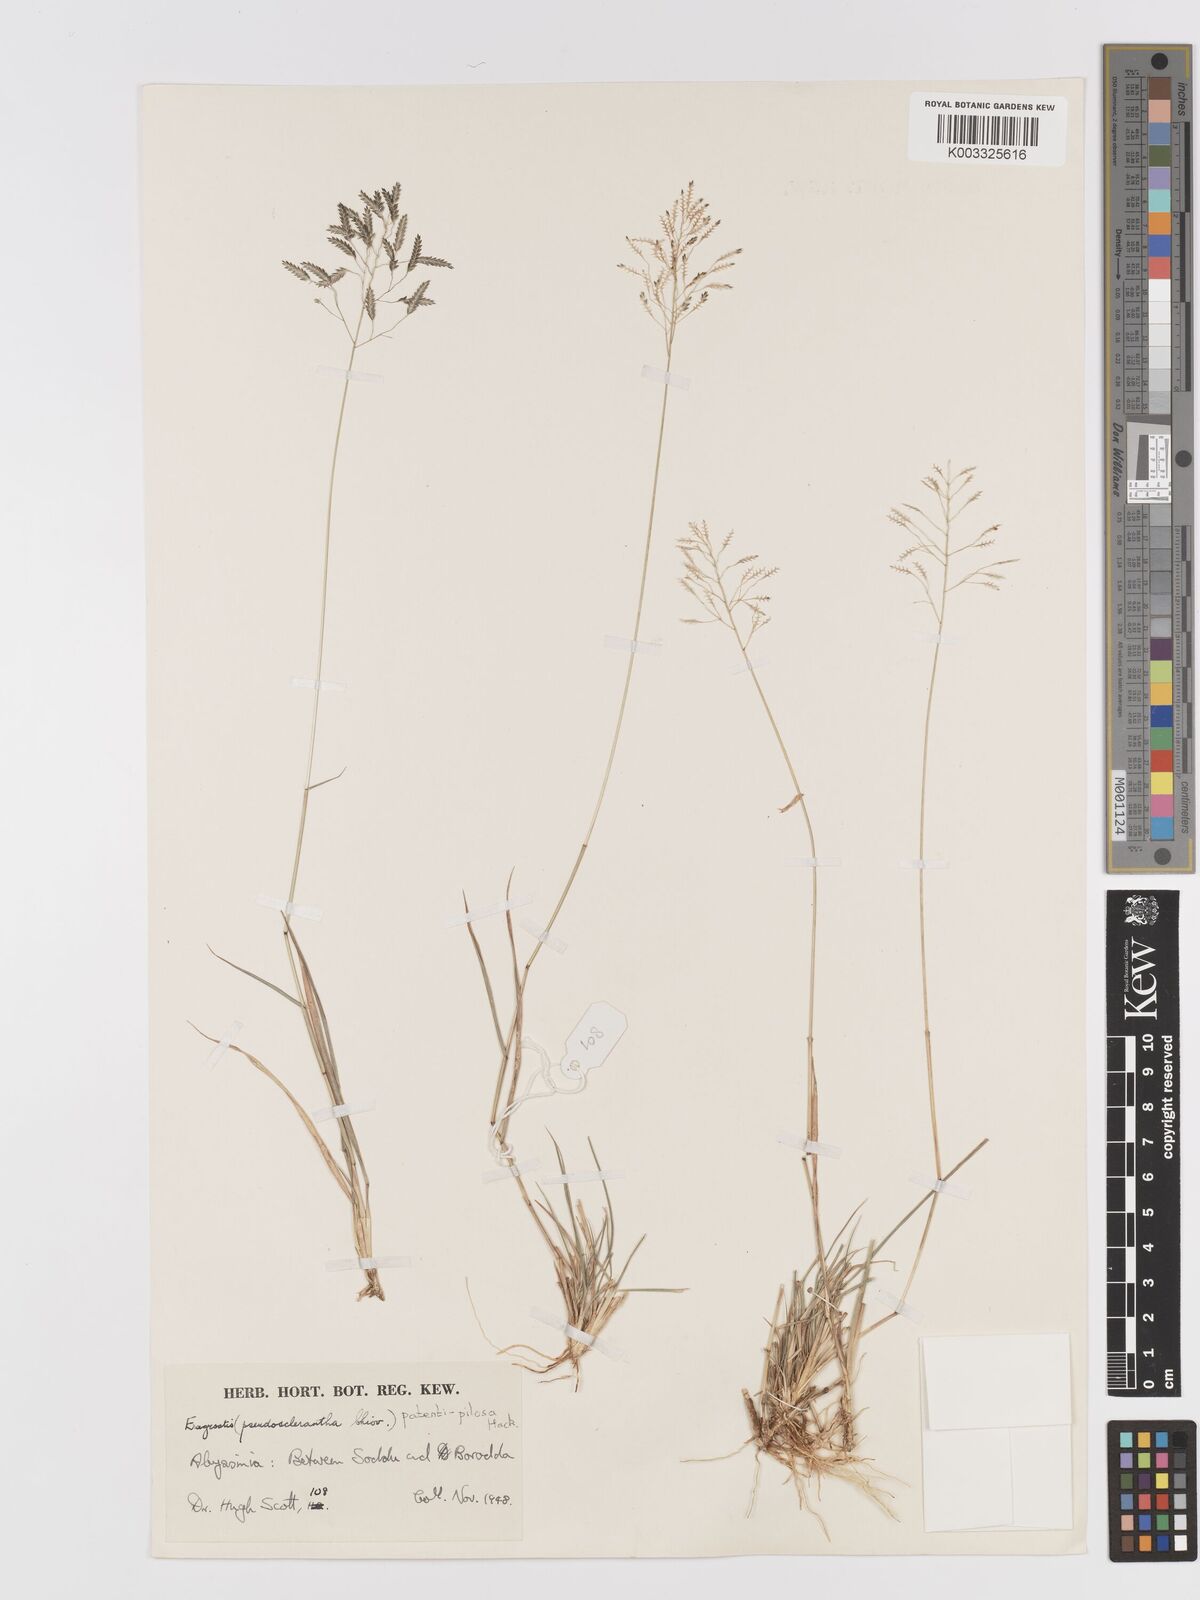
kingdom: Plantae
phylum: Tracheophyta
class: Liliopsida
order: Poales
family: Poaceae
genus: Eragrostis
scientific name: Eragrostis patentipilosa
